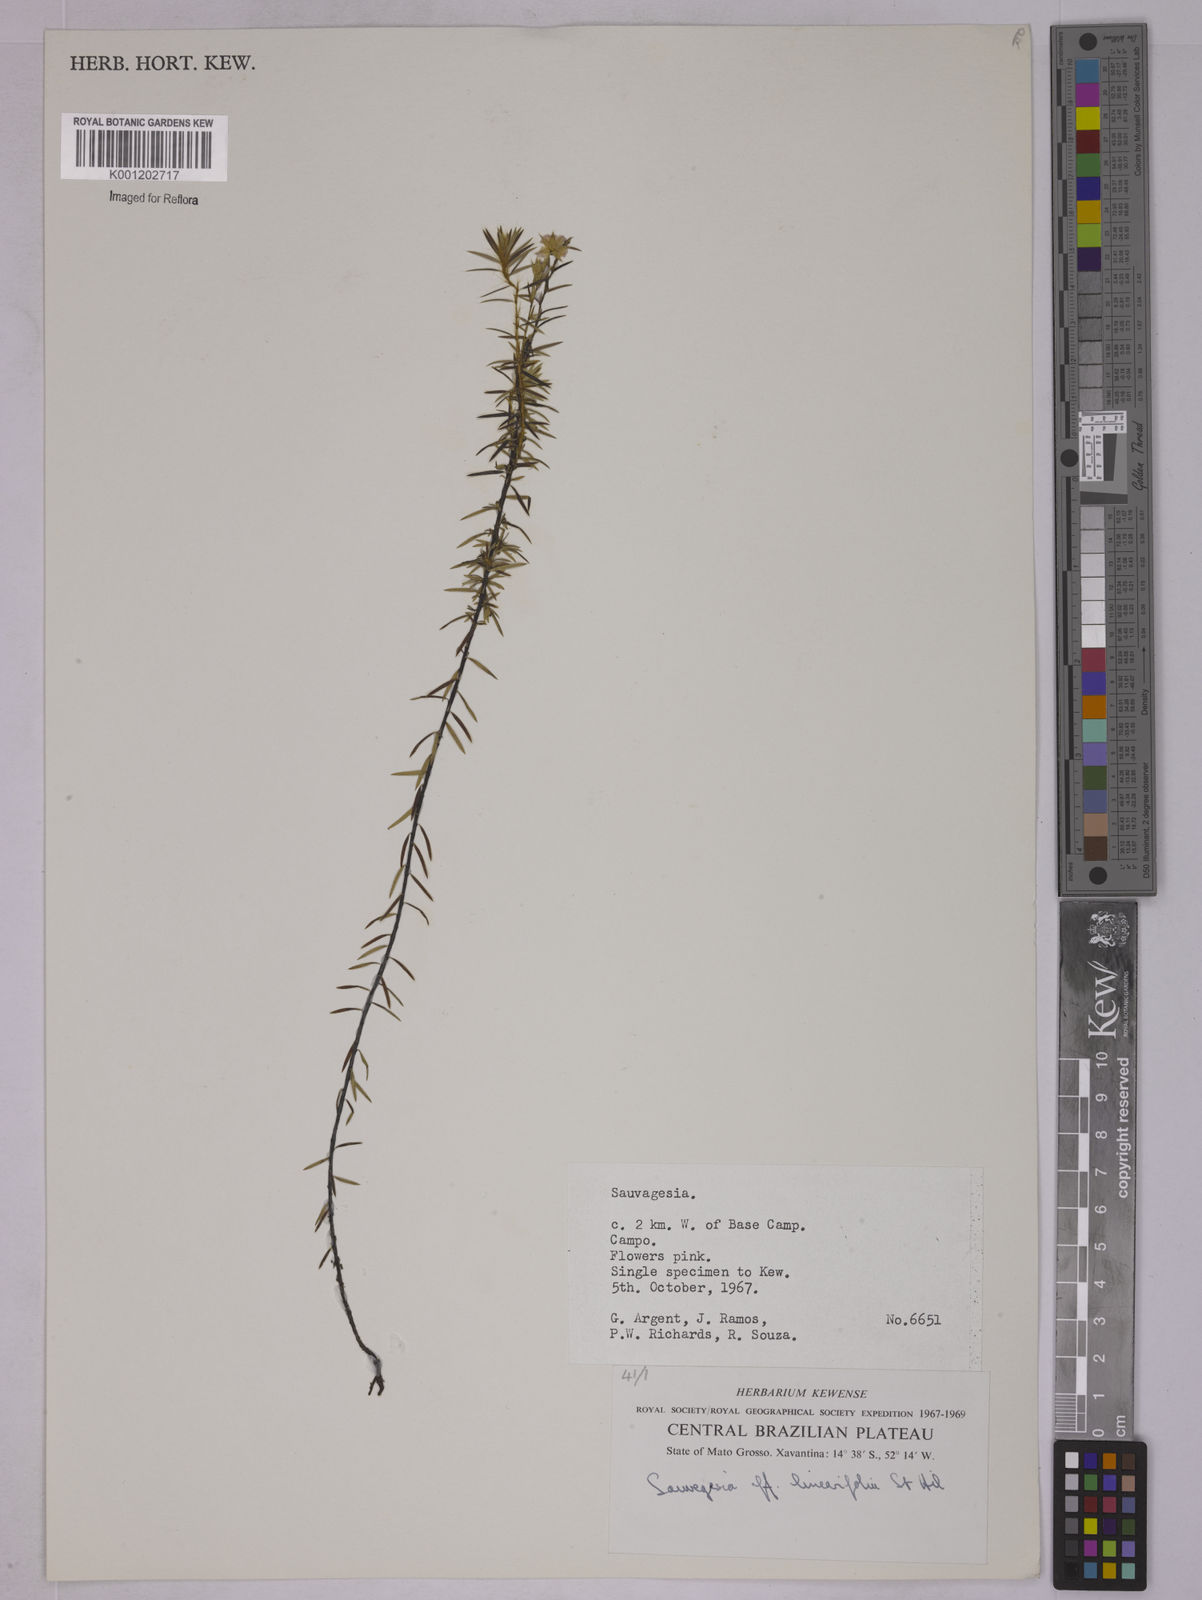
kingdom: Plantae
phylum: Tracheophyta
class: Magnoliopsida
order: Malpighiales
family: Ochnaceae
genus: Sauvagesia
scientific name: Sauvagesia linearifolia
